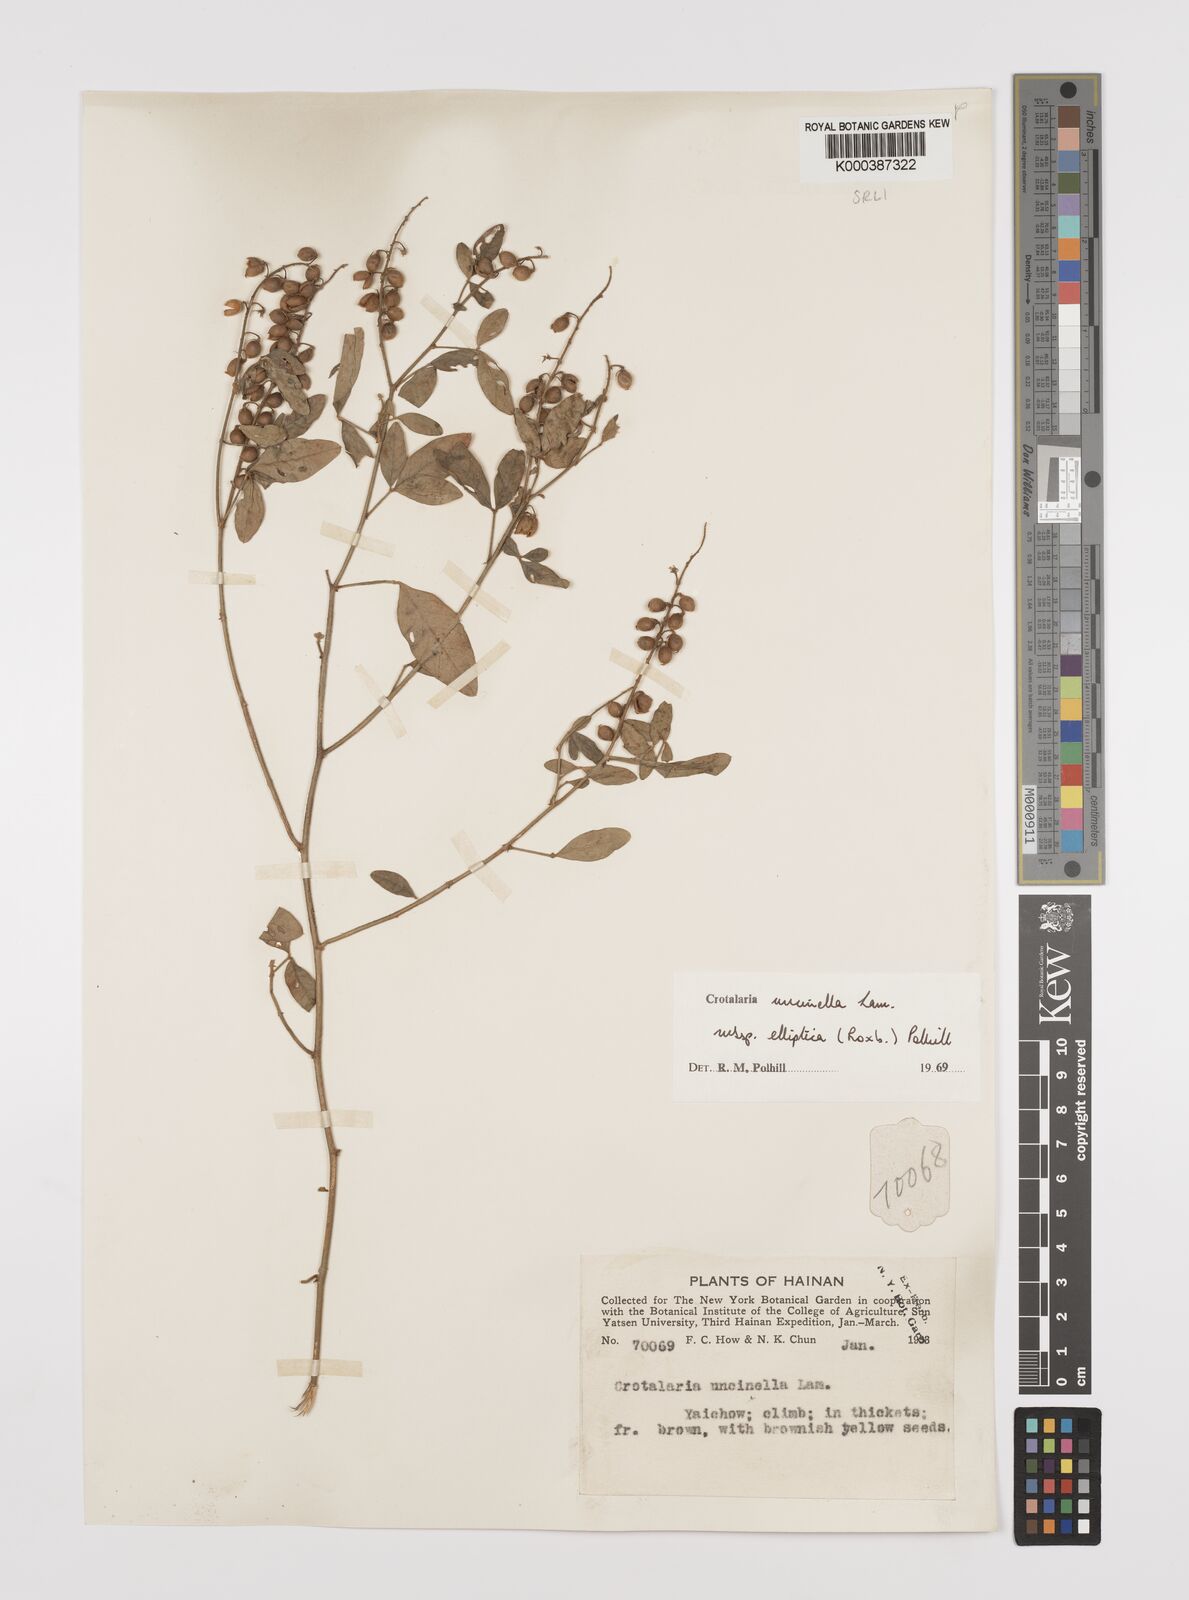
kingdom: Plantae
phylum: Tracheophyta
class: Magnoliopsida
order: Fabales
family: Fabaceae
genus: Crotalaria
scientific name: Crotalaria uncinella
